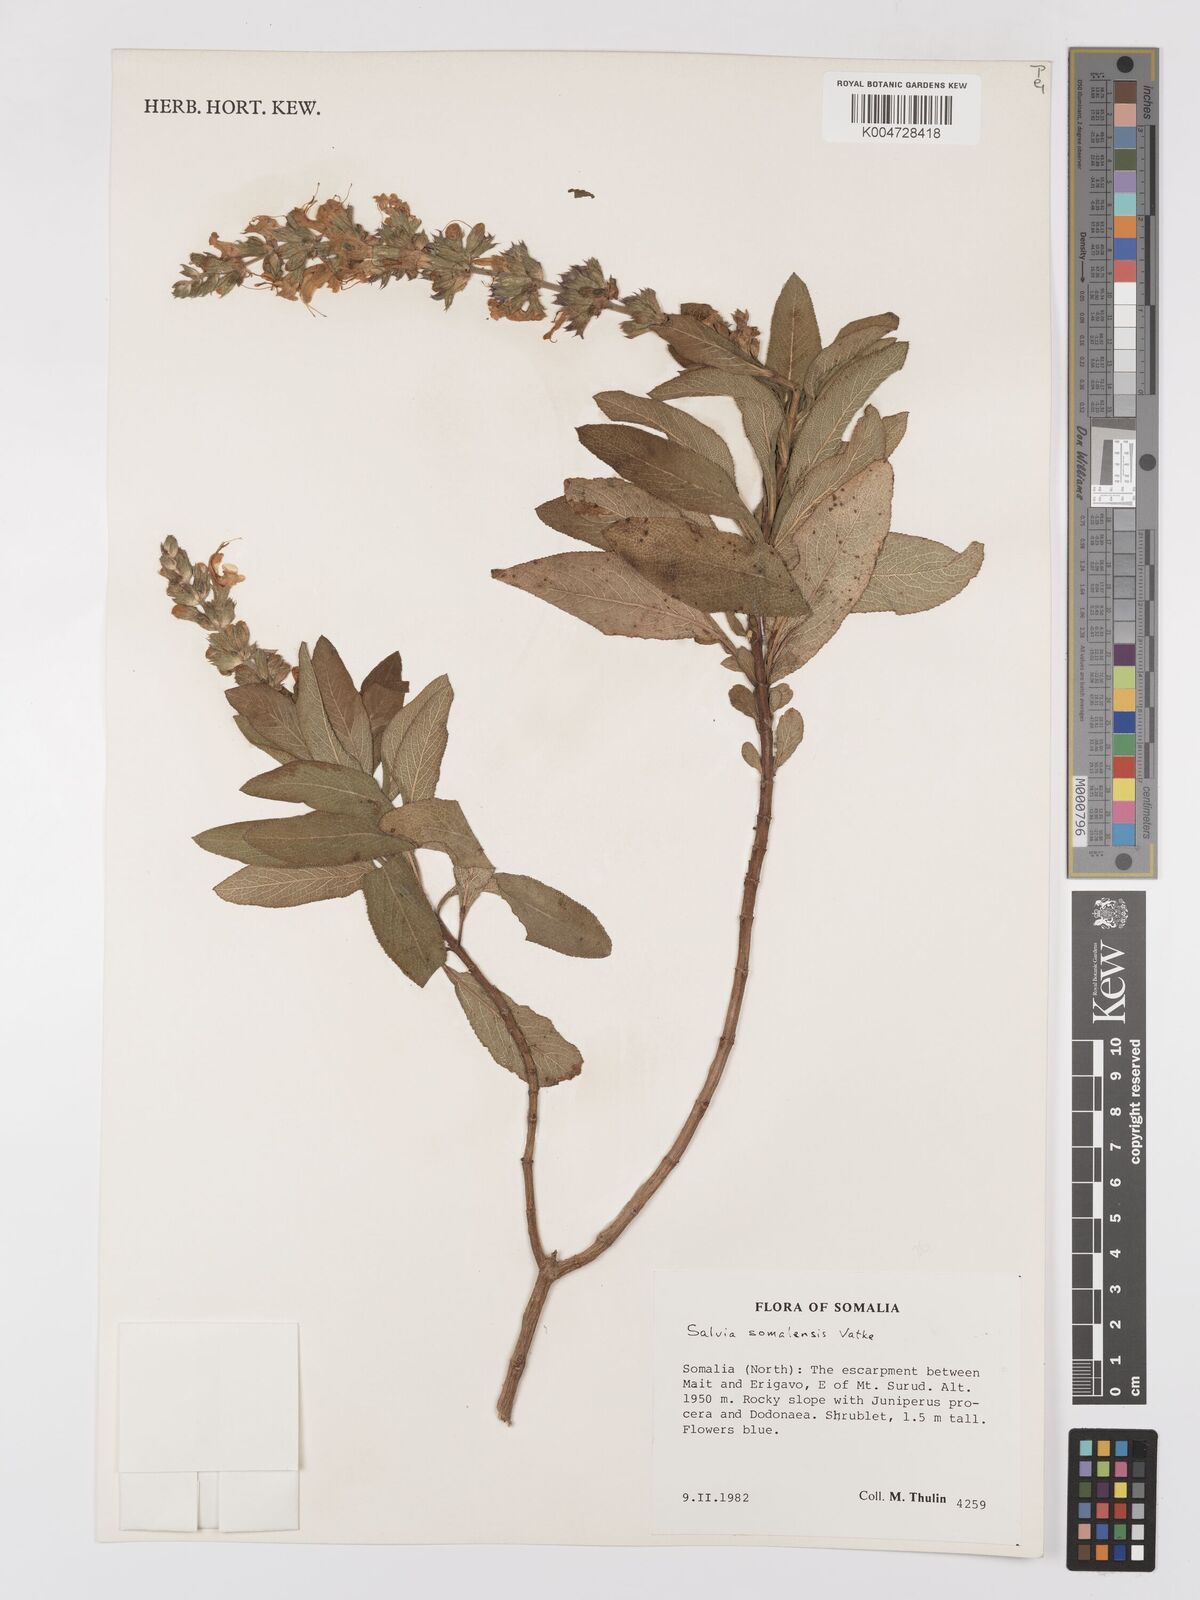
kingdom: Plantae
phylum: Tracheophyta
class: Magnoliopsida
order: Lamiales
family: Lamiaceae
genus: Salvia
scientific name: Salvia somalensis
